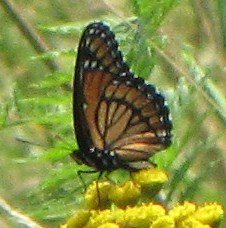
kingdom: Animalia
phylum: Arthropoda
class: Insecta
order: Lepidoptera
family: Nymphalidae
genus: Limenitis
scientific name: Limenitis archippus
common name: Viceroy
